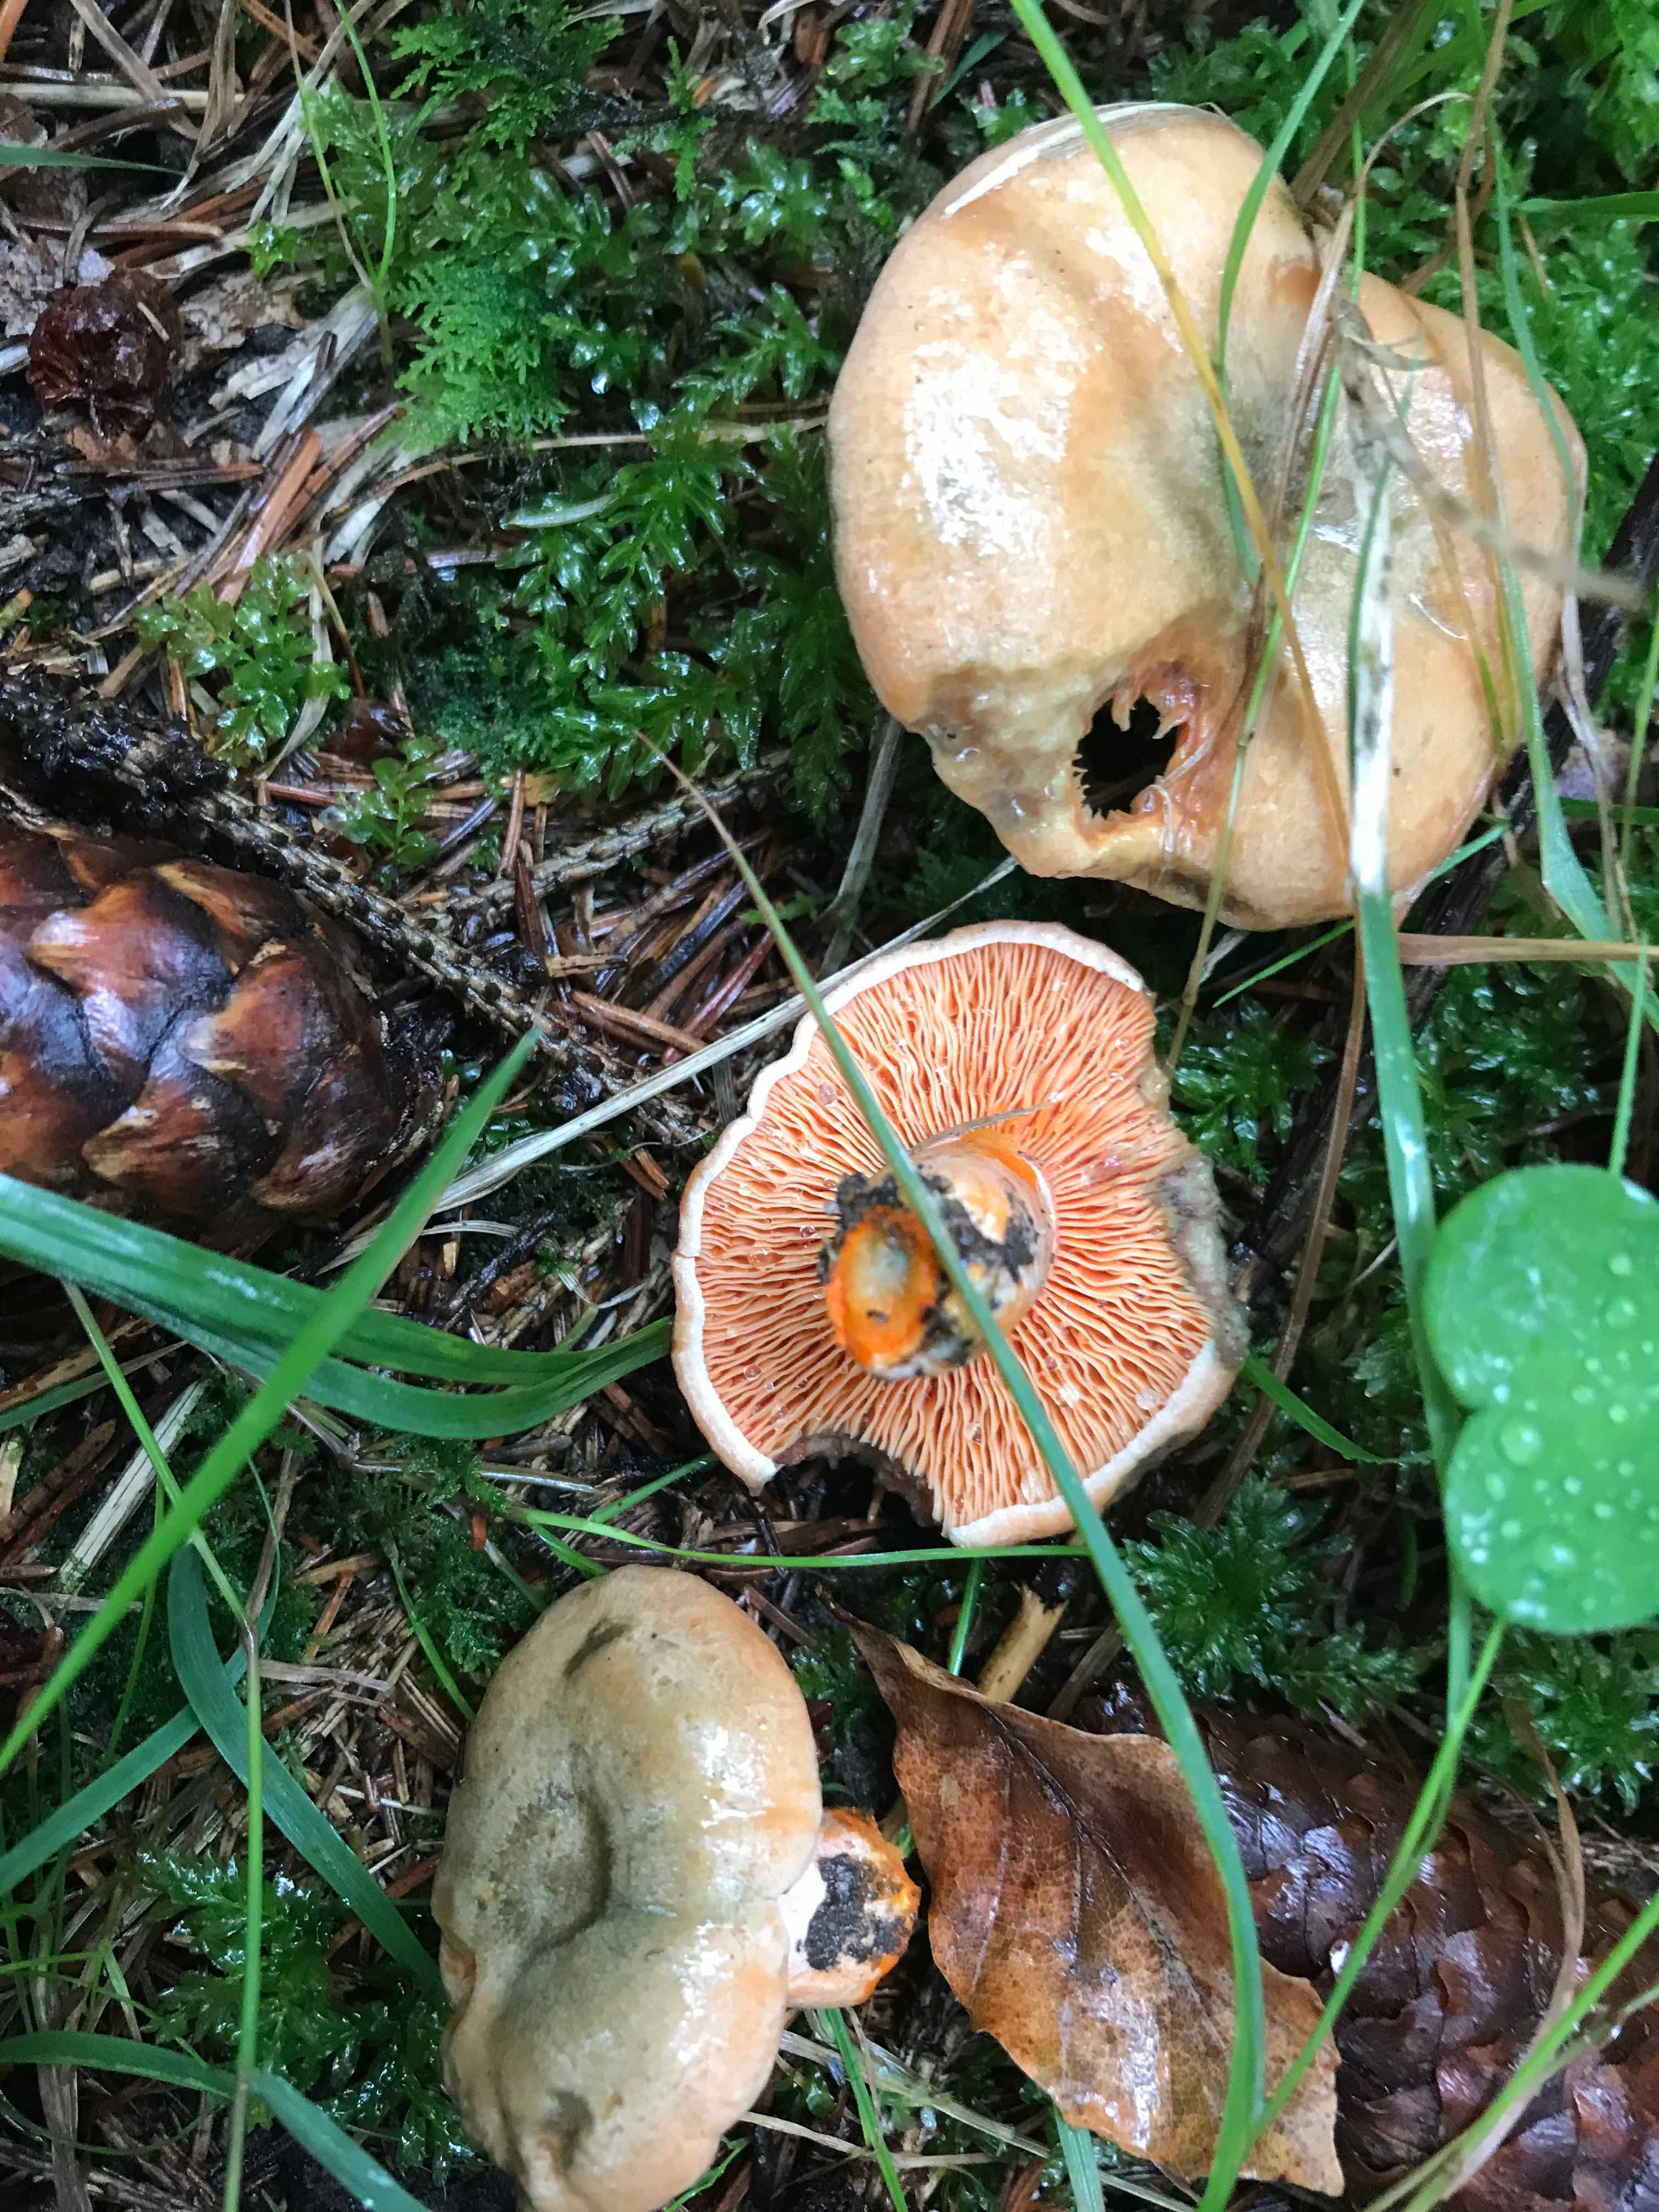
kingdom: Fungi
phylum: Basidiomycota
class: Agaricomycetes
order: Russulales
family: Russulaceae
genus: Lactarius
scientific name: Lactarius deterrimus
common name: gran-mælkehat
